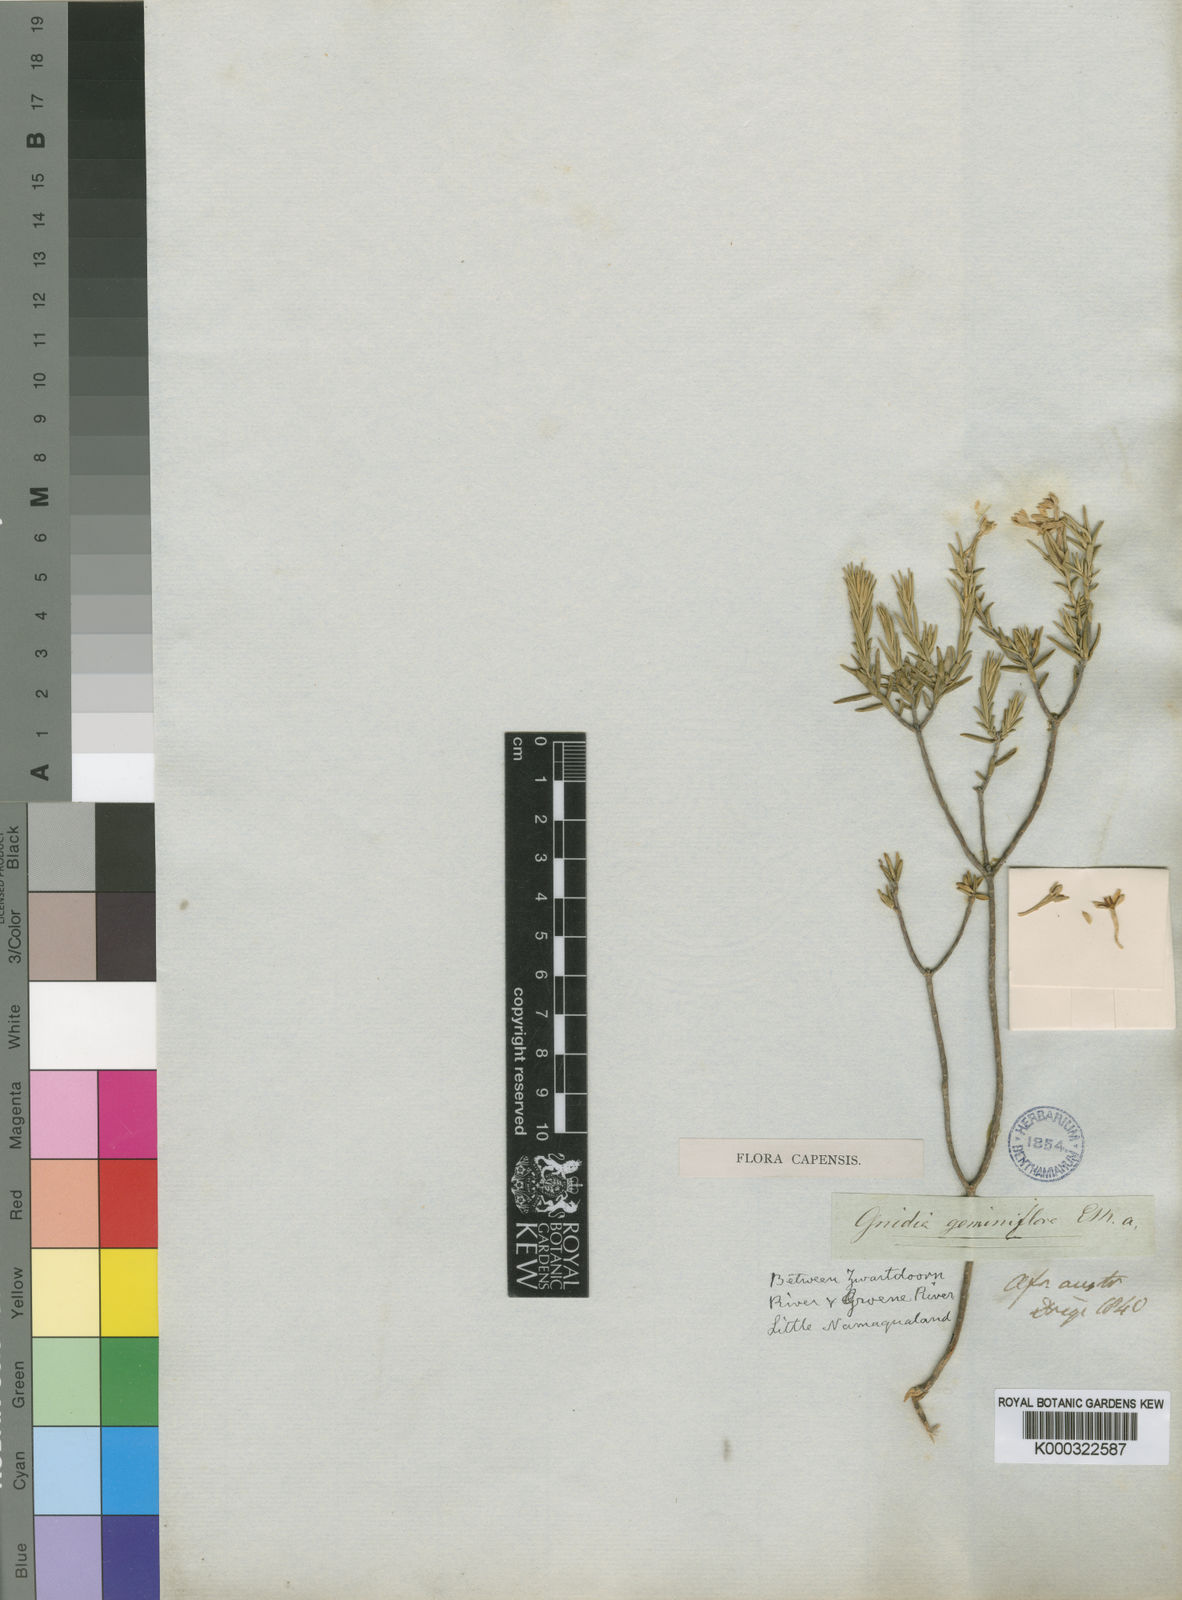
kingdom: Plantae
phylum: Tracheophyta
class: Magnoliopsida
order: Malvales
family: Thymelaeaceae
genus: Gnidia
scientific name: Gnidia geminiflora
